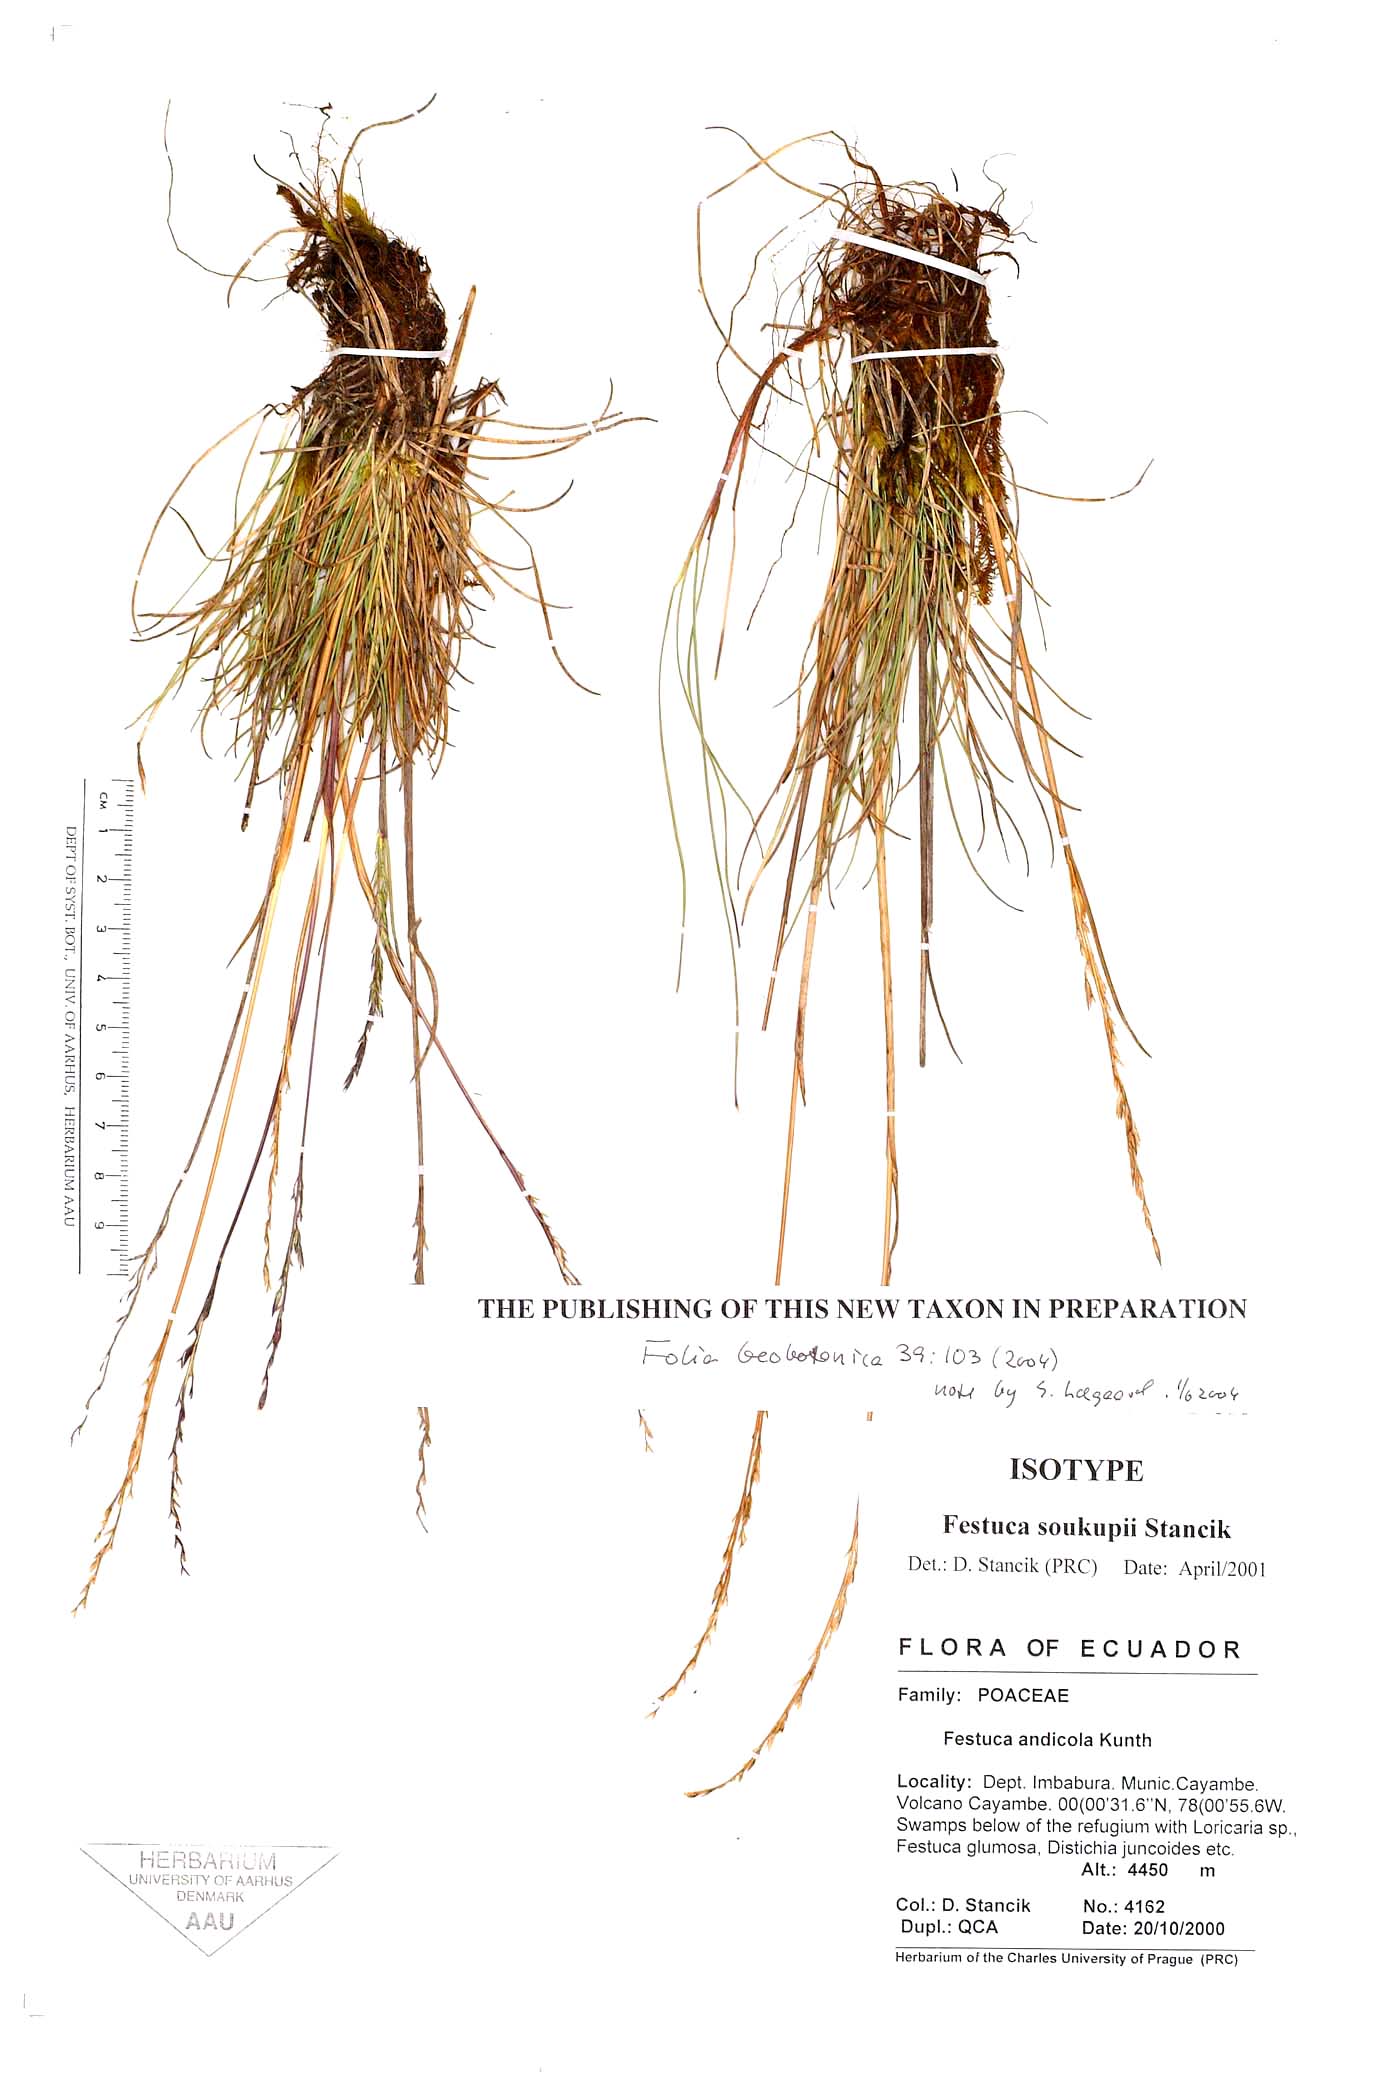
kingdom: Plantae
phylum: Tracheophyta
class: Liliopsida
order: Poales
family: Poaceae
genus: Festuca
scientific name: Festuca soukupii
